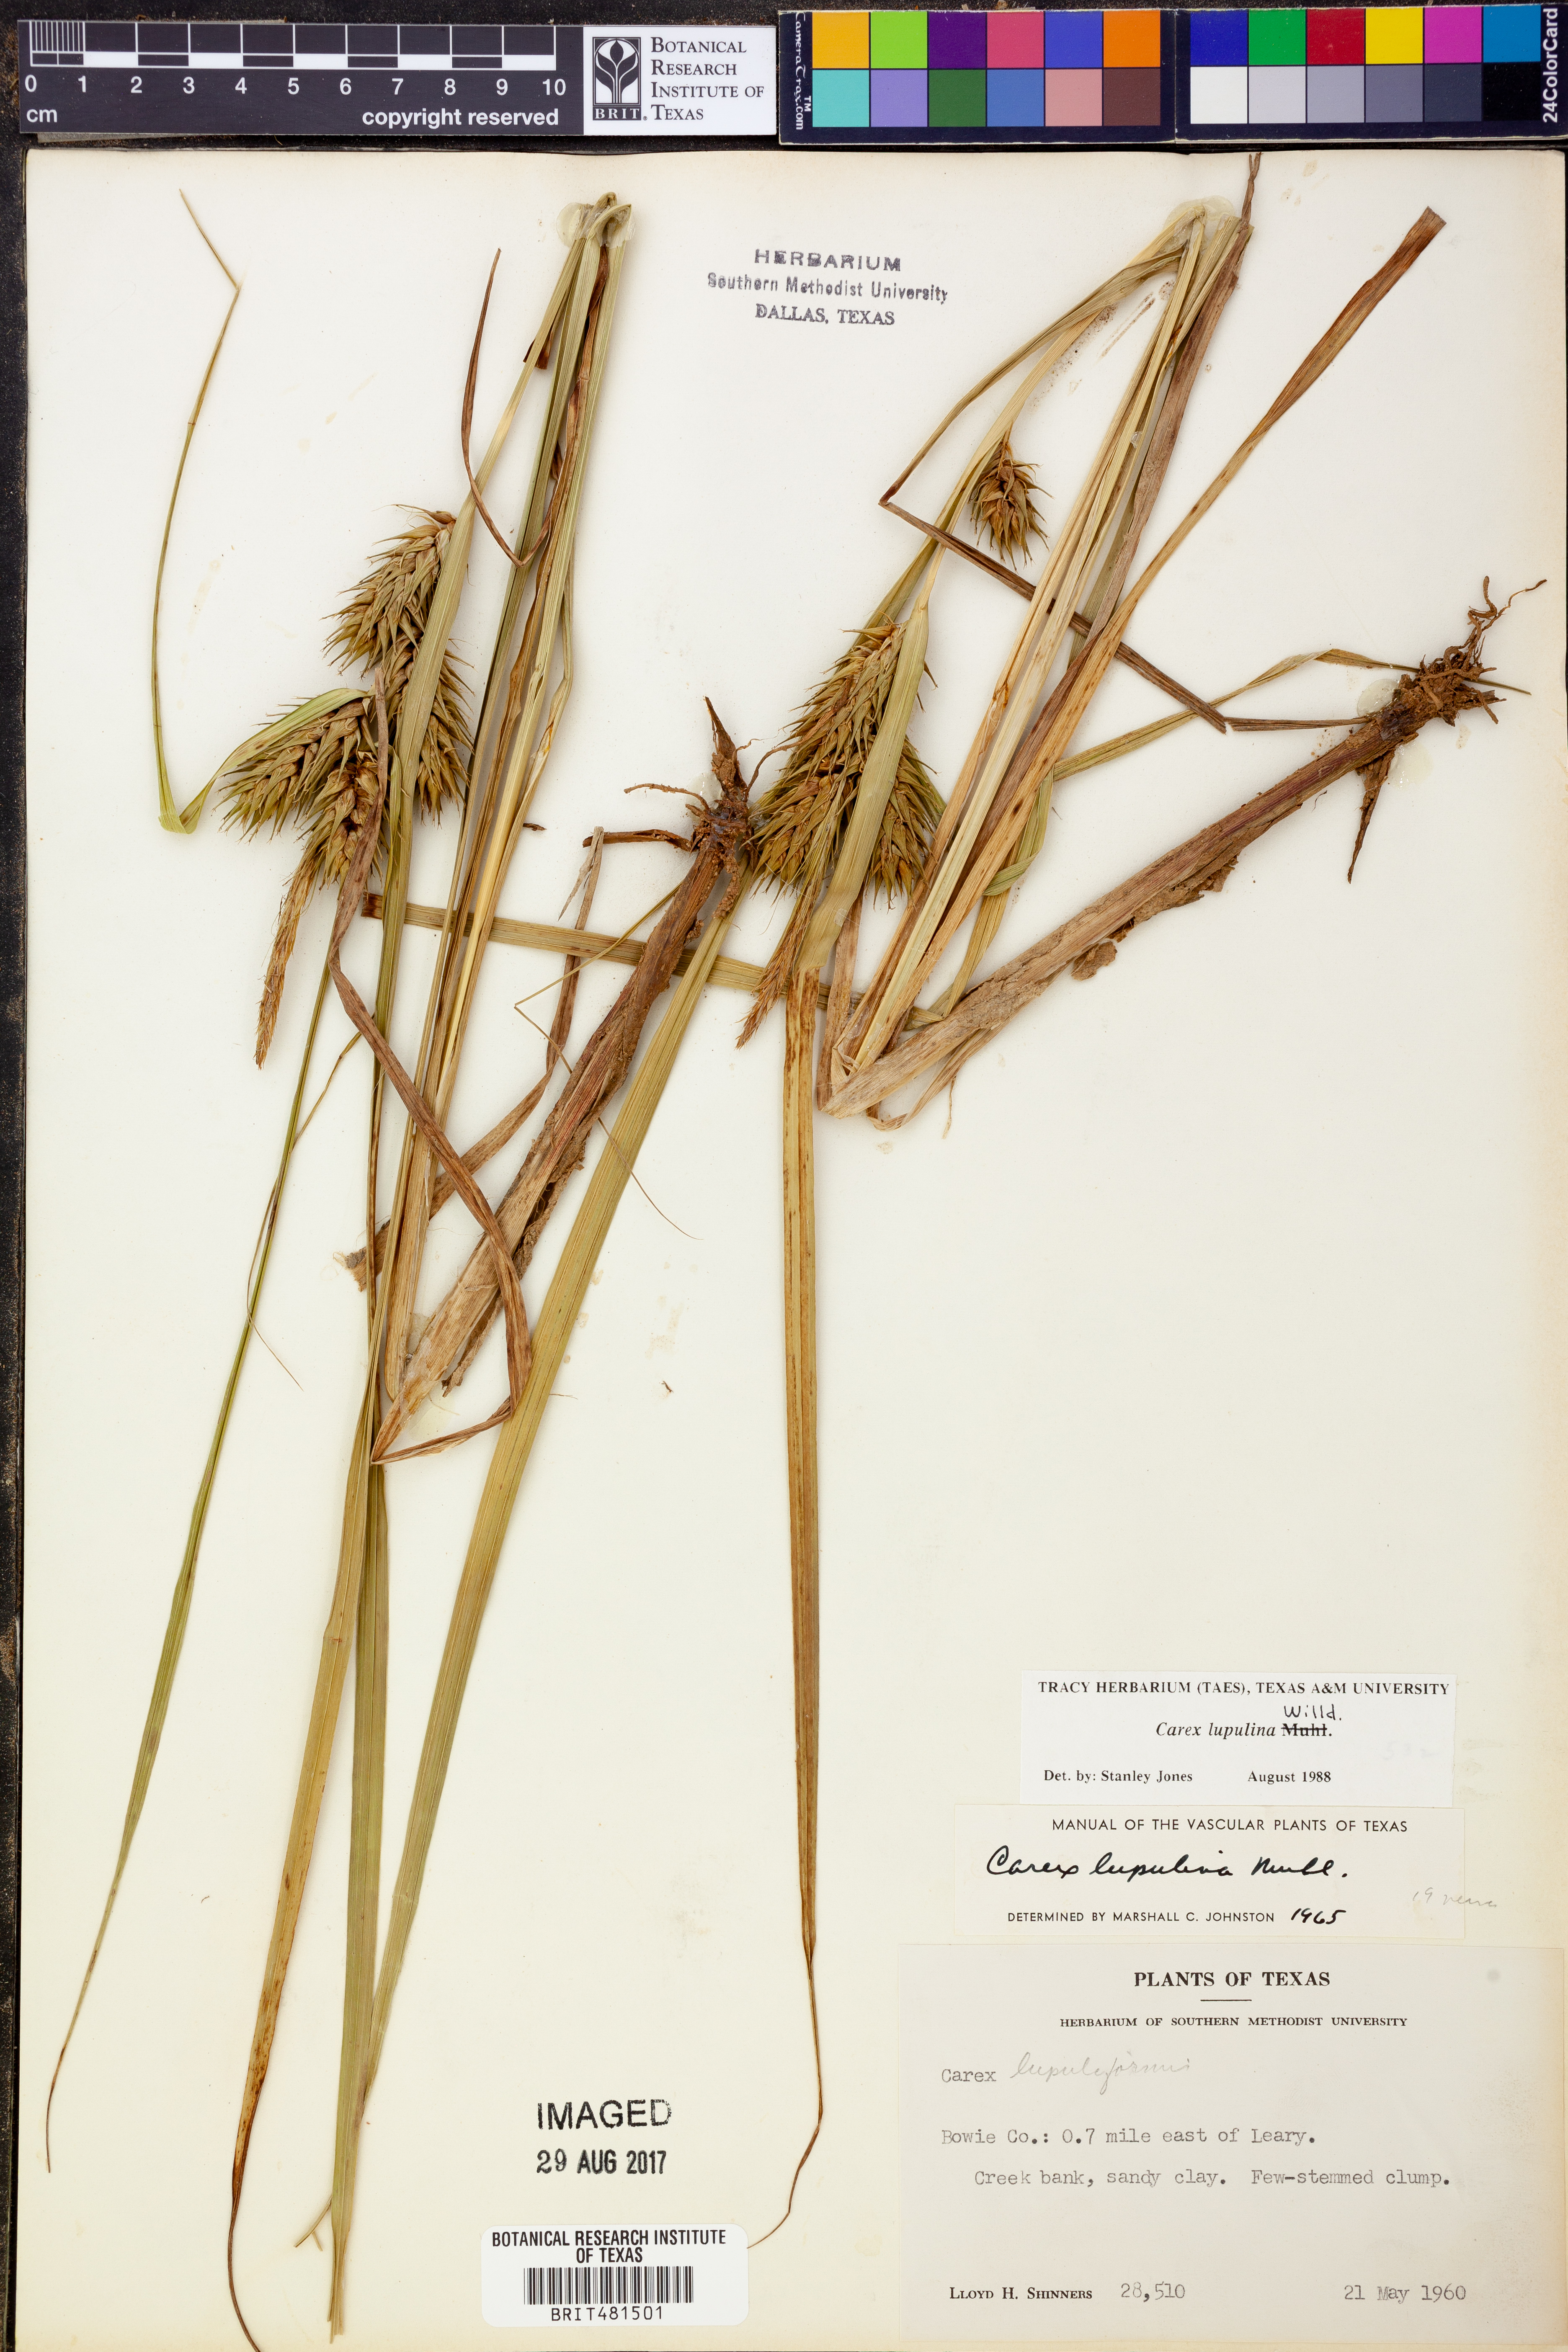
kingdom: Plantae
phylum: Tracheophyta
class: Liliopsida
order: Poales
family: Cyperaceae
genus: Carex
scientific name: Carex lupulina
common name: Hop sedge
